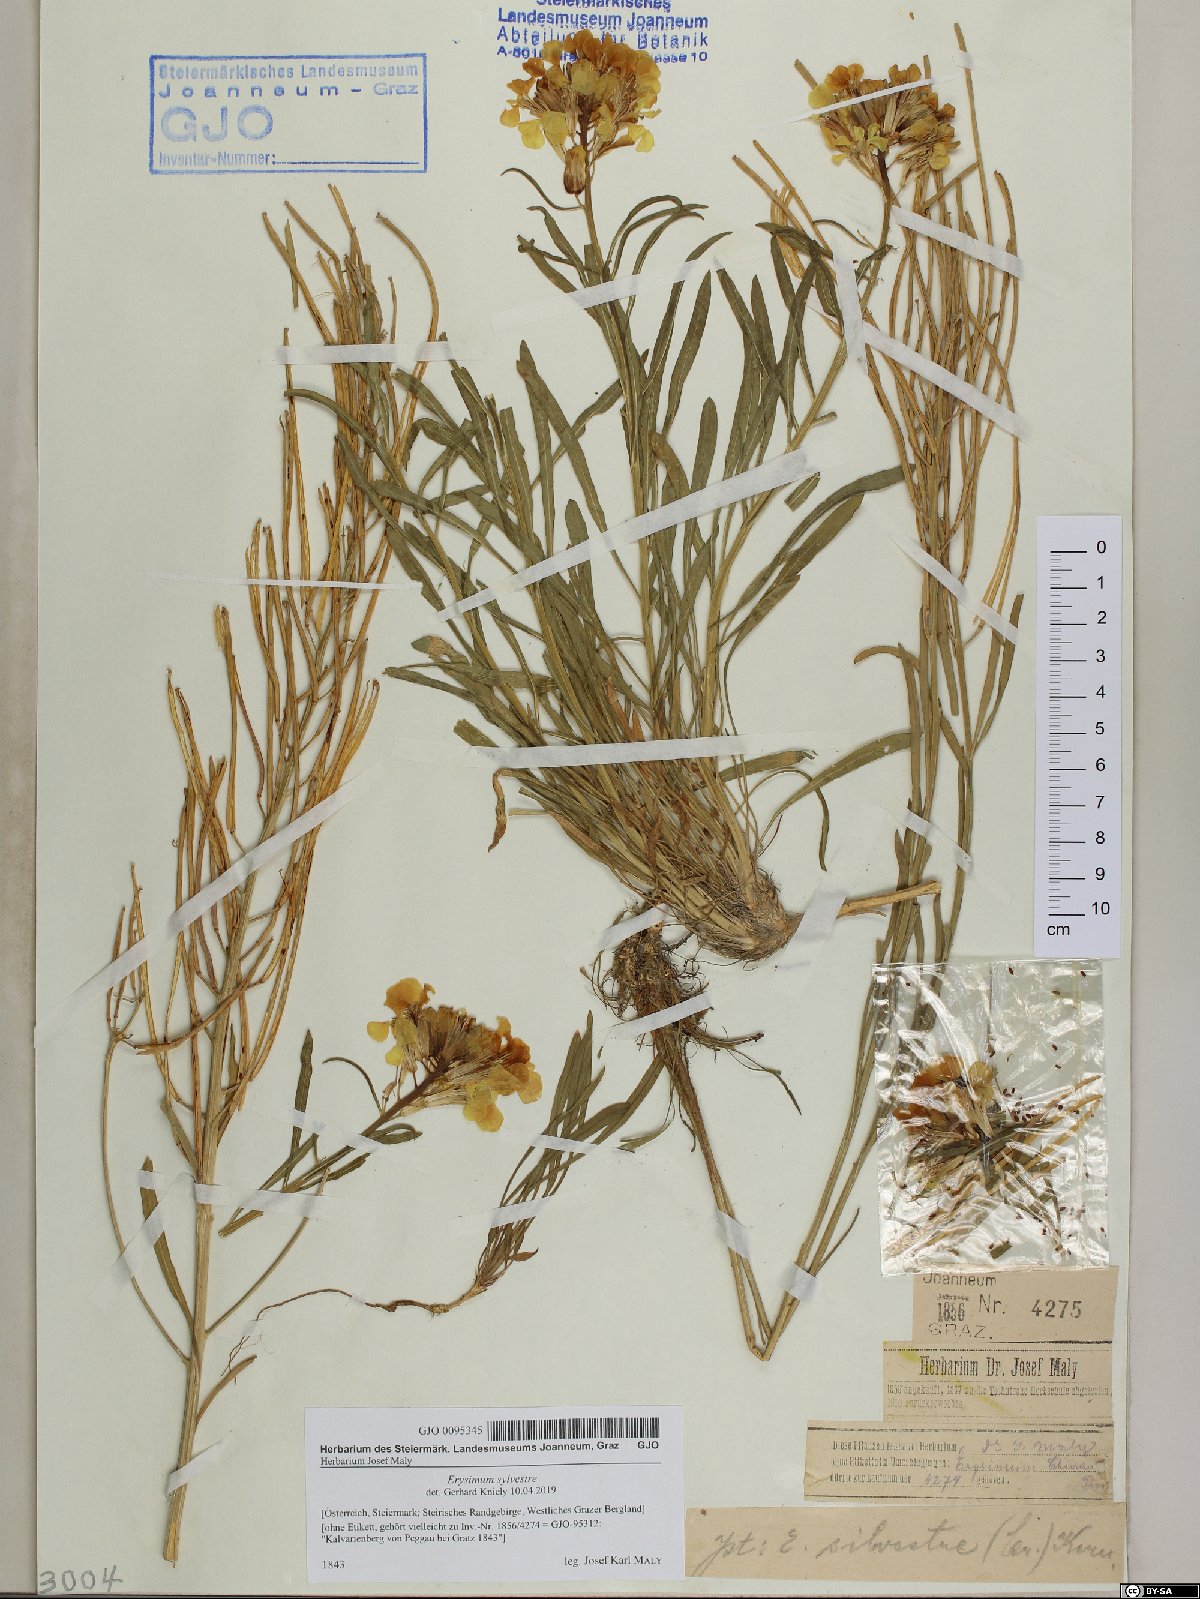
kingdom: Plantae
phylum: Tracheophyta
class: Magnoliopsida
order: Brassicales
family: Brassicaceae
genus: Erysimum
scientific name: Erysimum sylvestre
